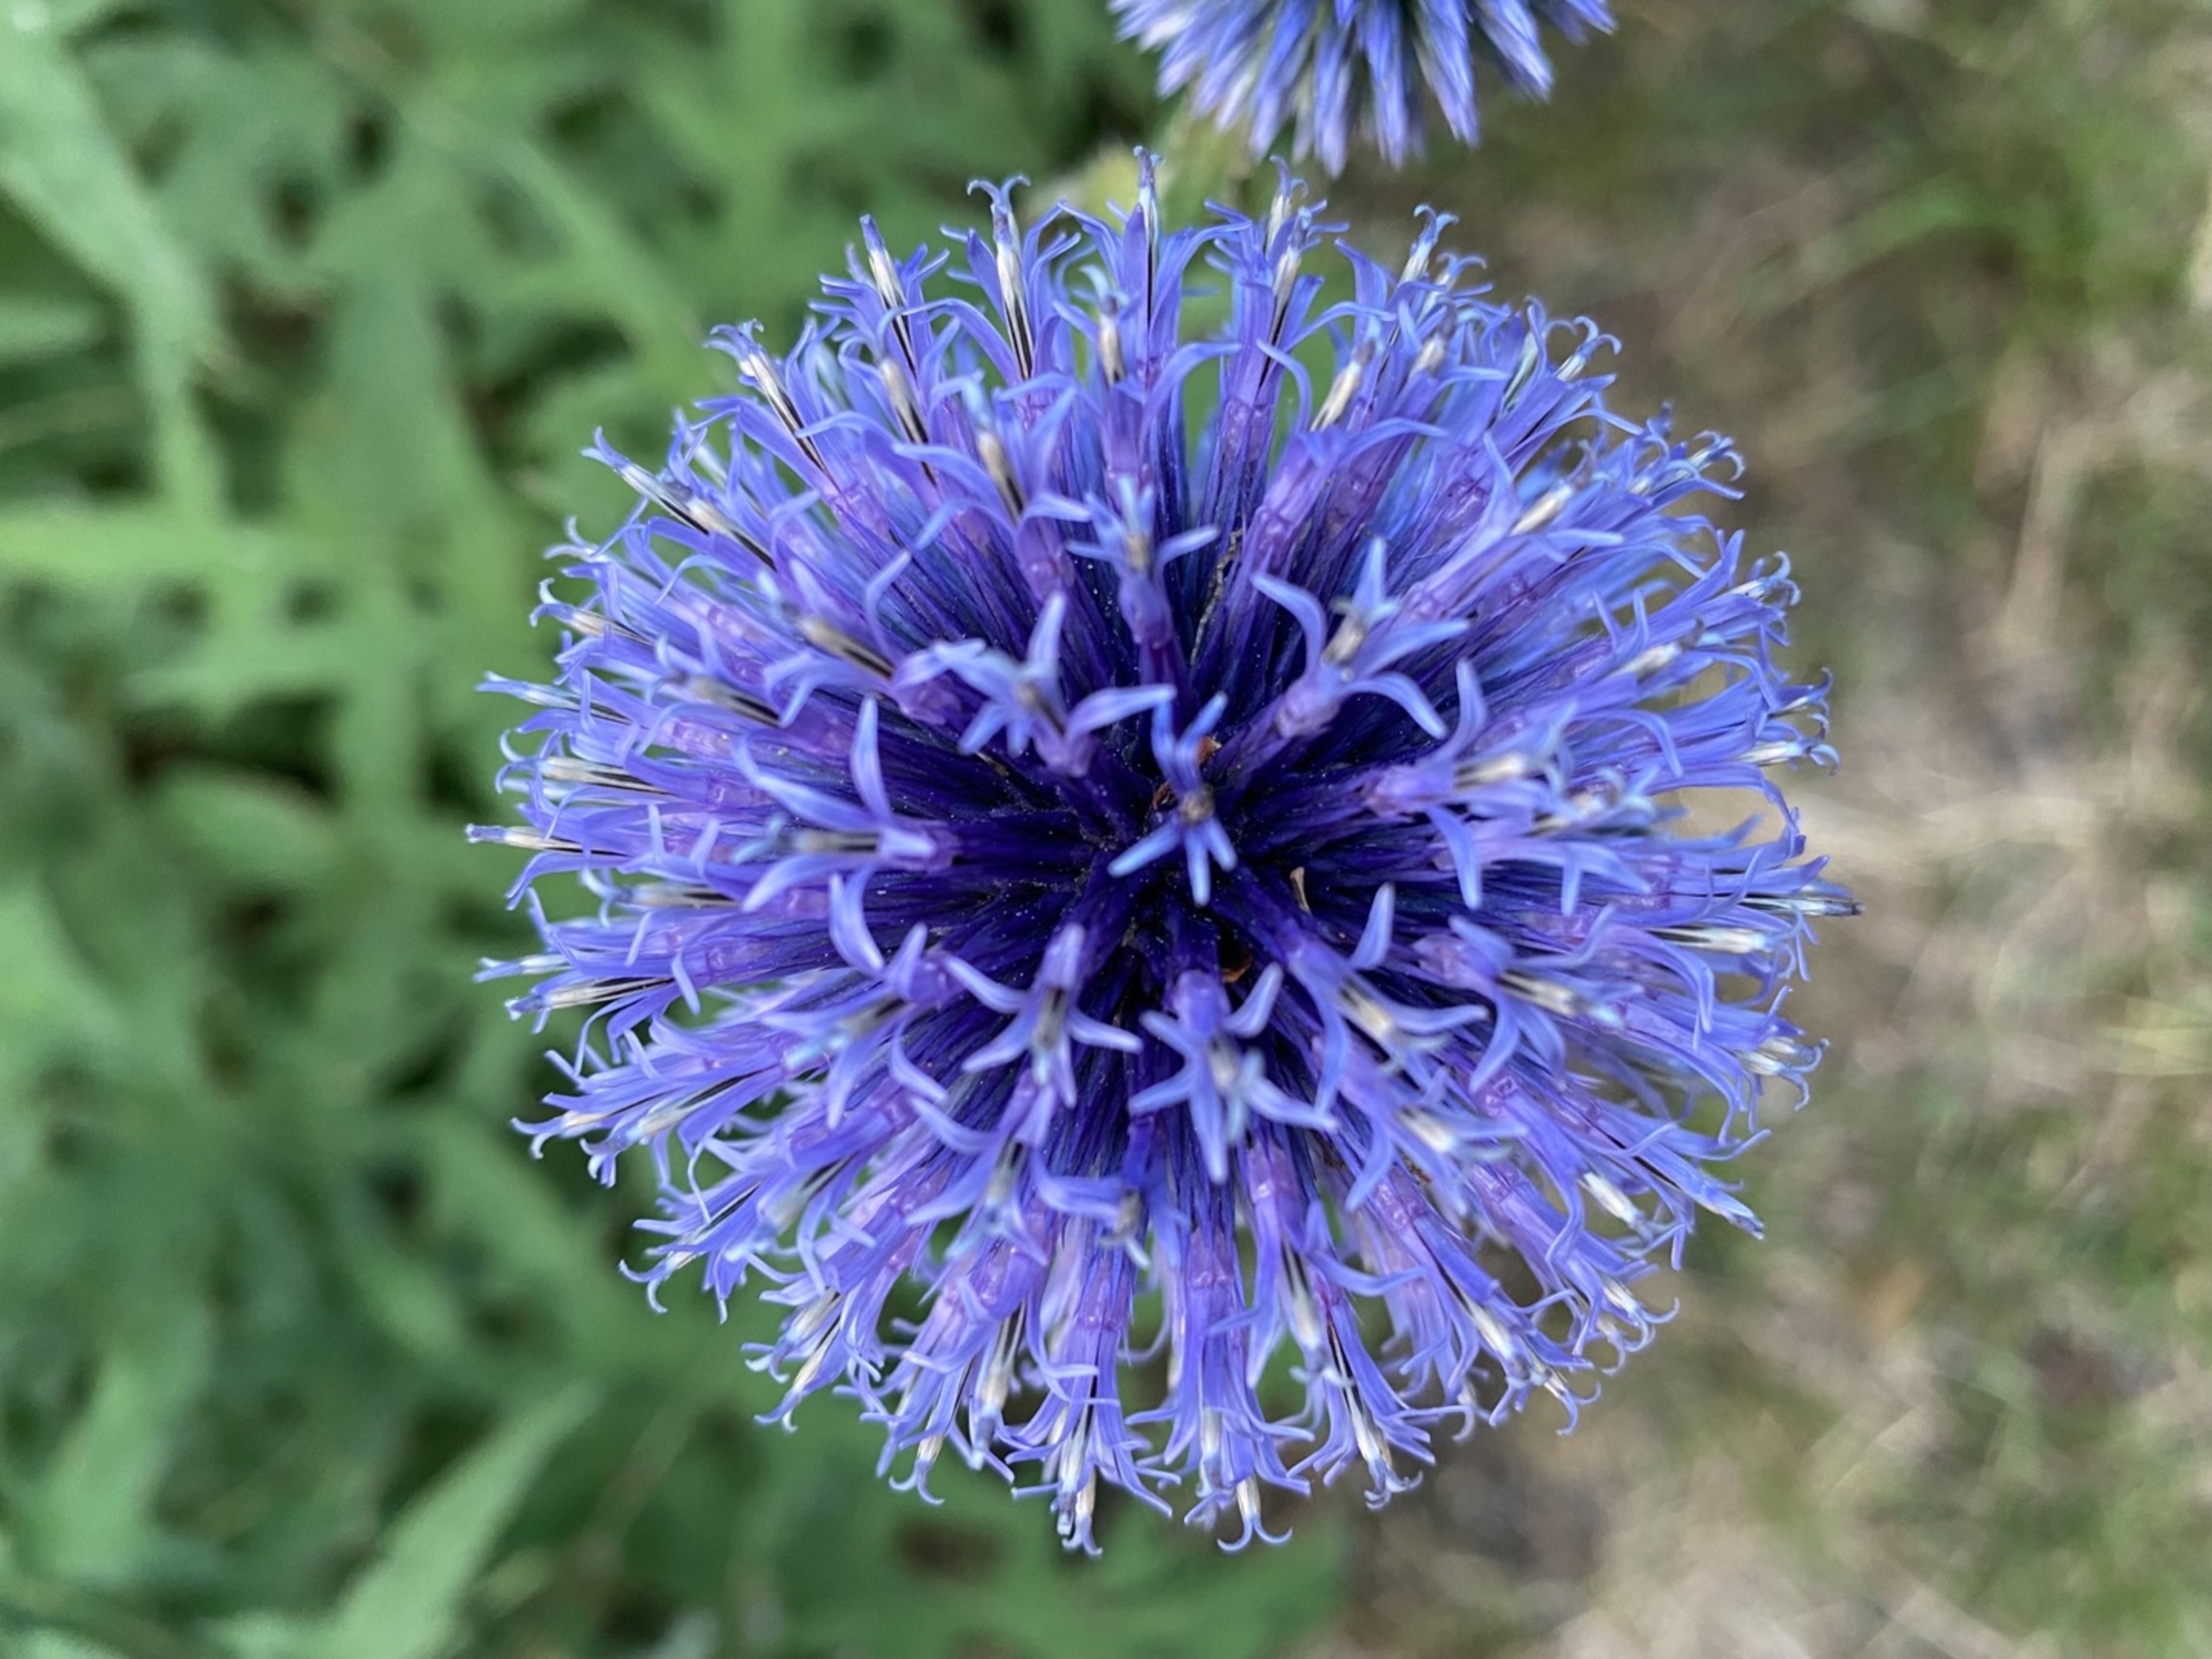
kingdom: Plantae
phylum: Tracheophyta
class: Magnoliopsida
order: Asterales
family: Asteraceae
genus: Echinops
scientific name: Echinops bannaticus
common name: Blå tidselkugle
